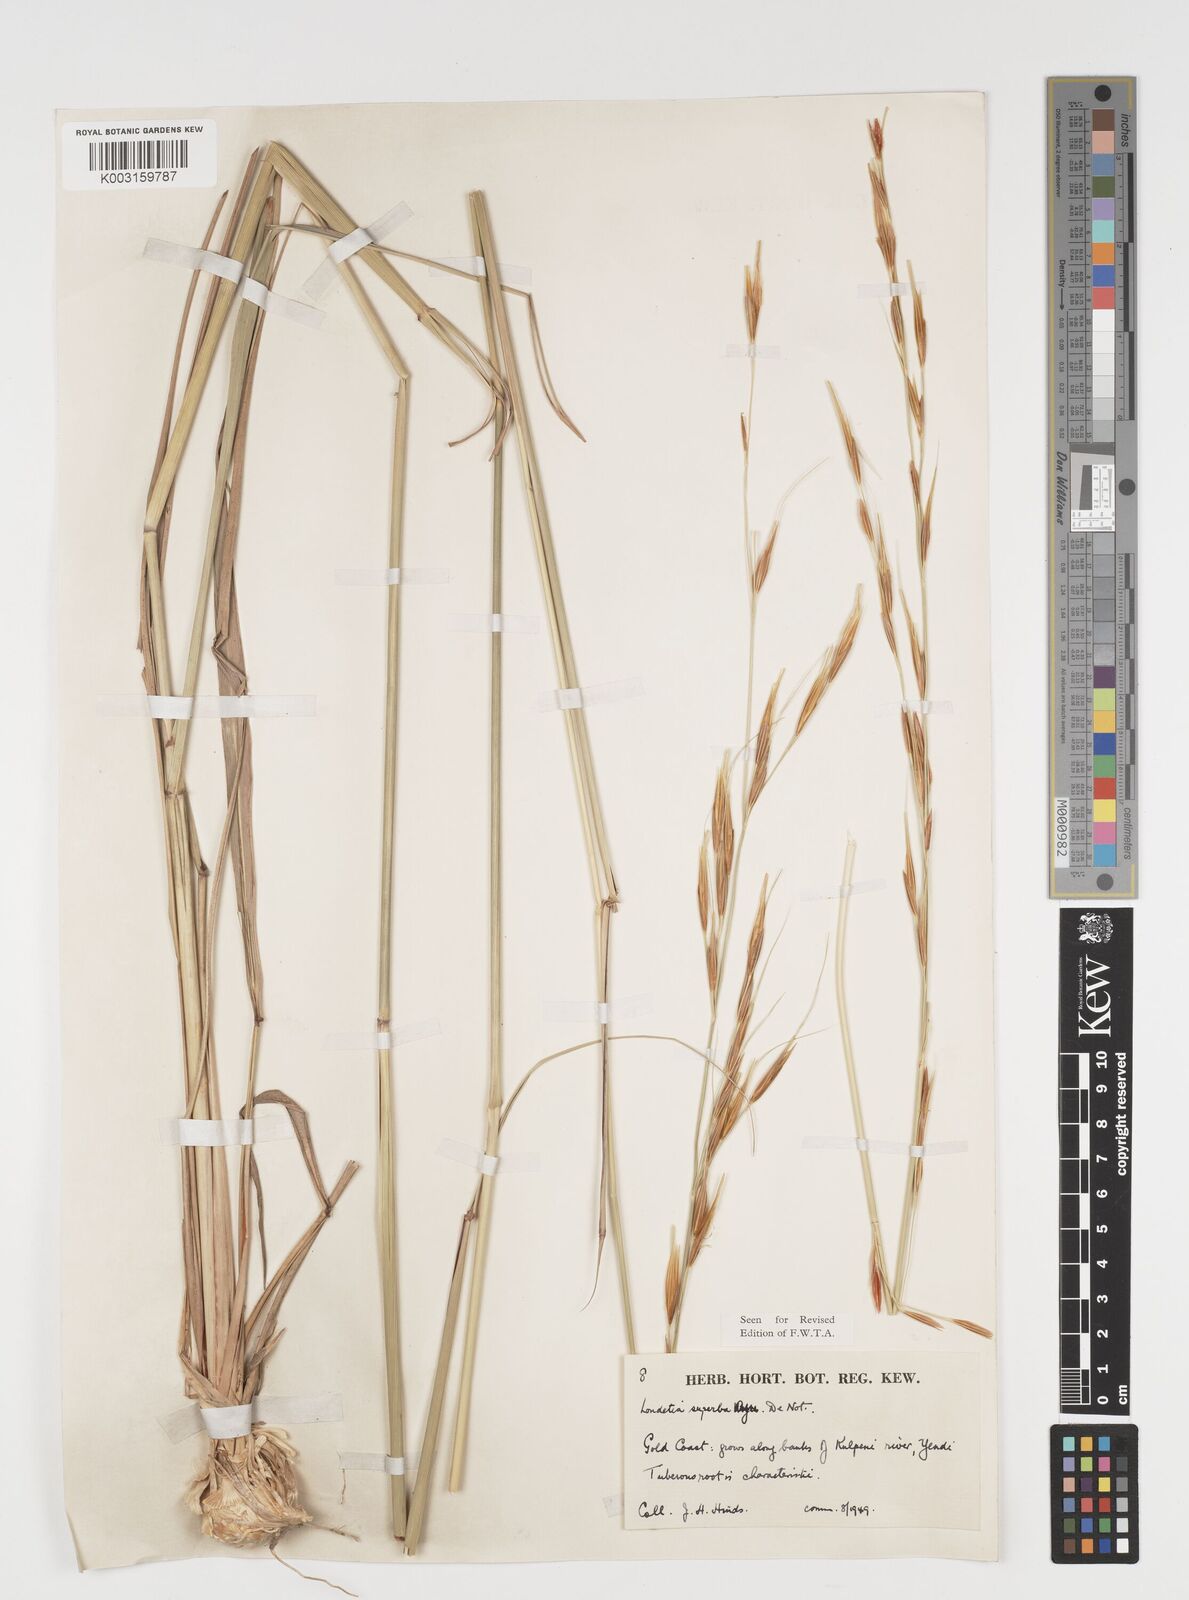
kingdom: Plantae
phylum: Tracheophyta
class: Liliopsida
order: Poales
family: Poaceae
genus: Tristachya
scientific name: Tristachya superba
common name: Giant trident grass
